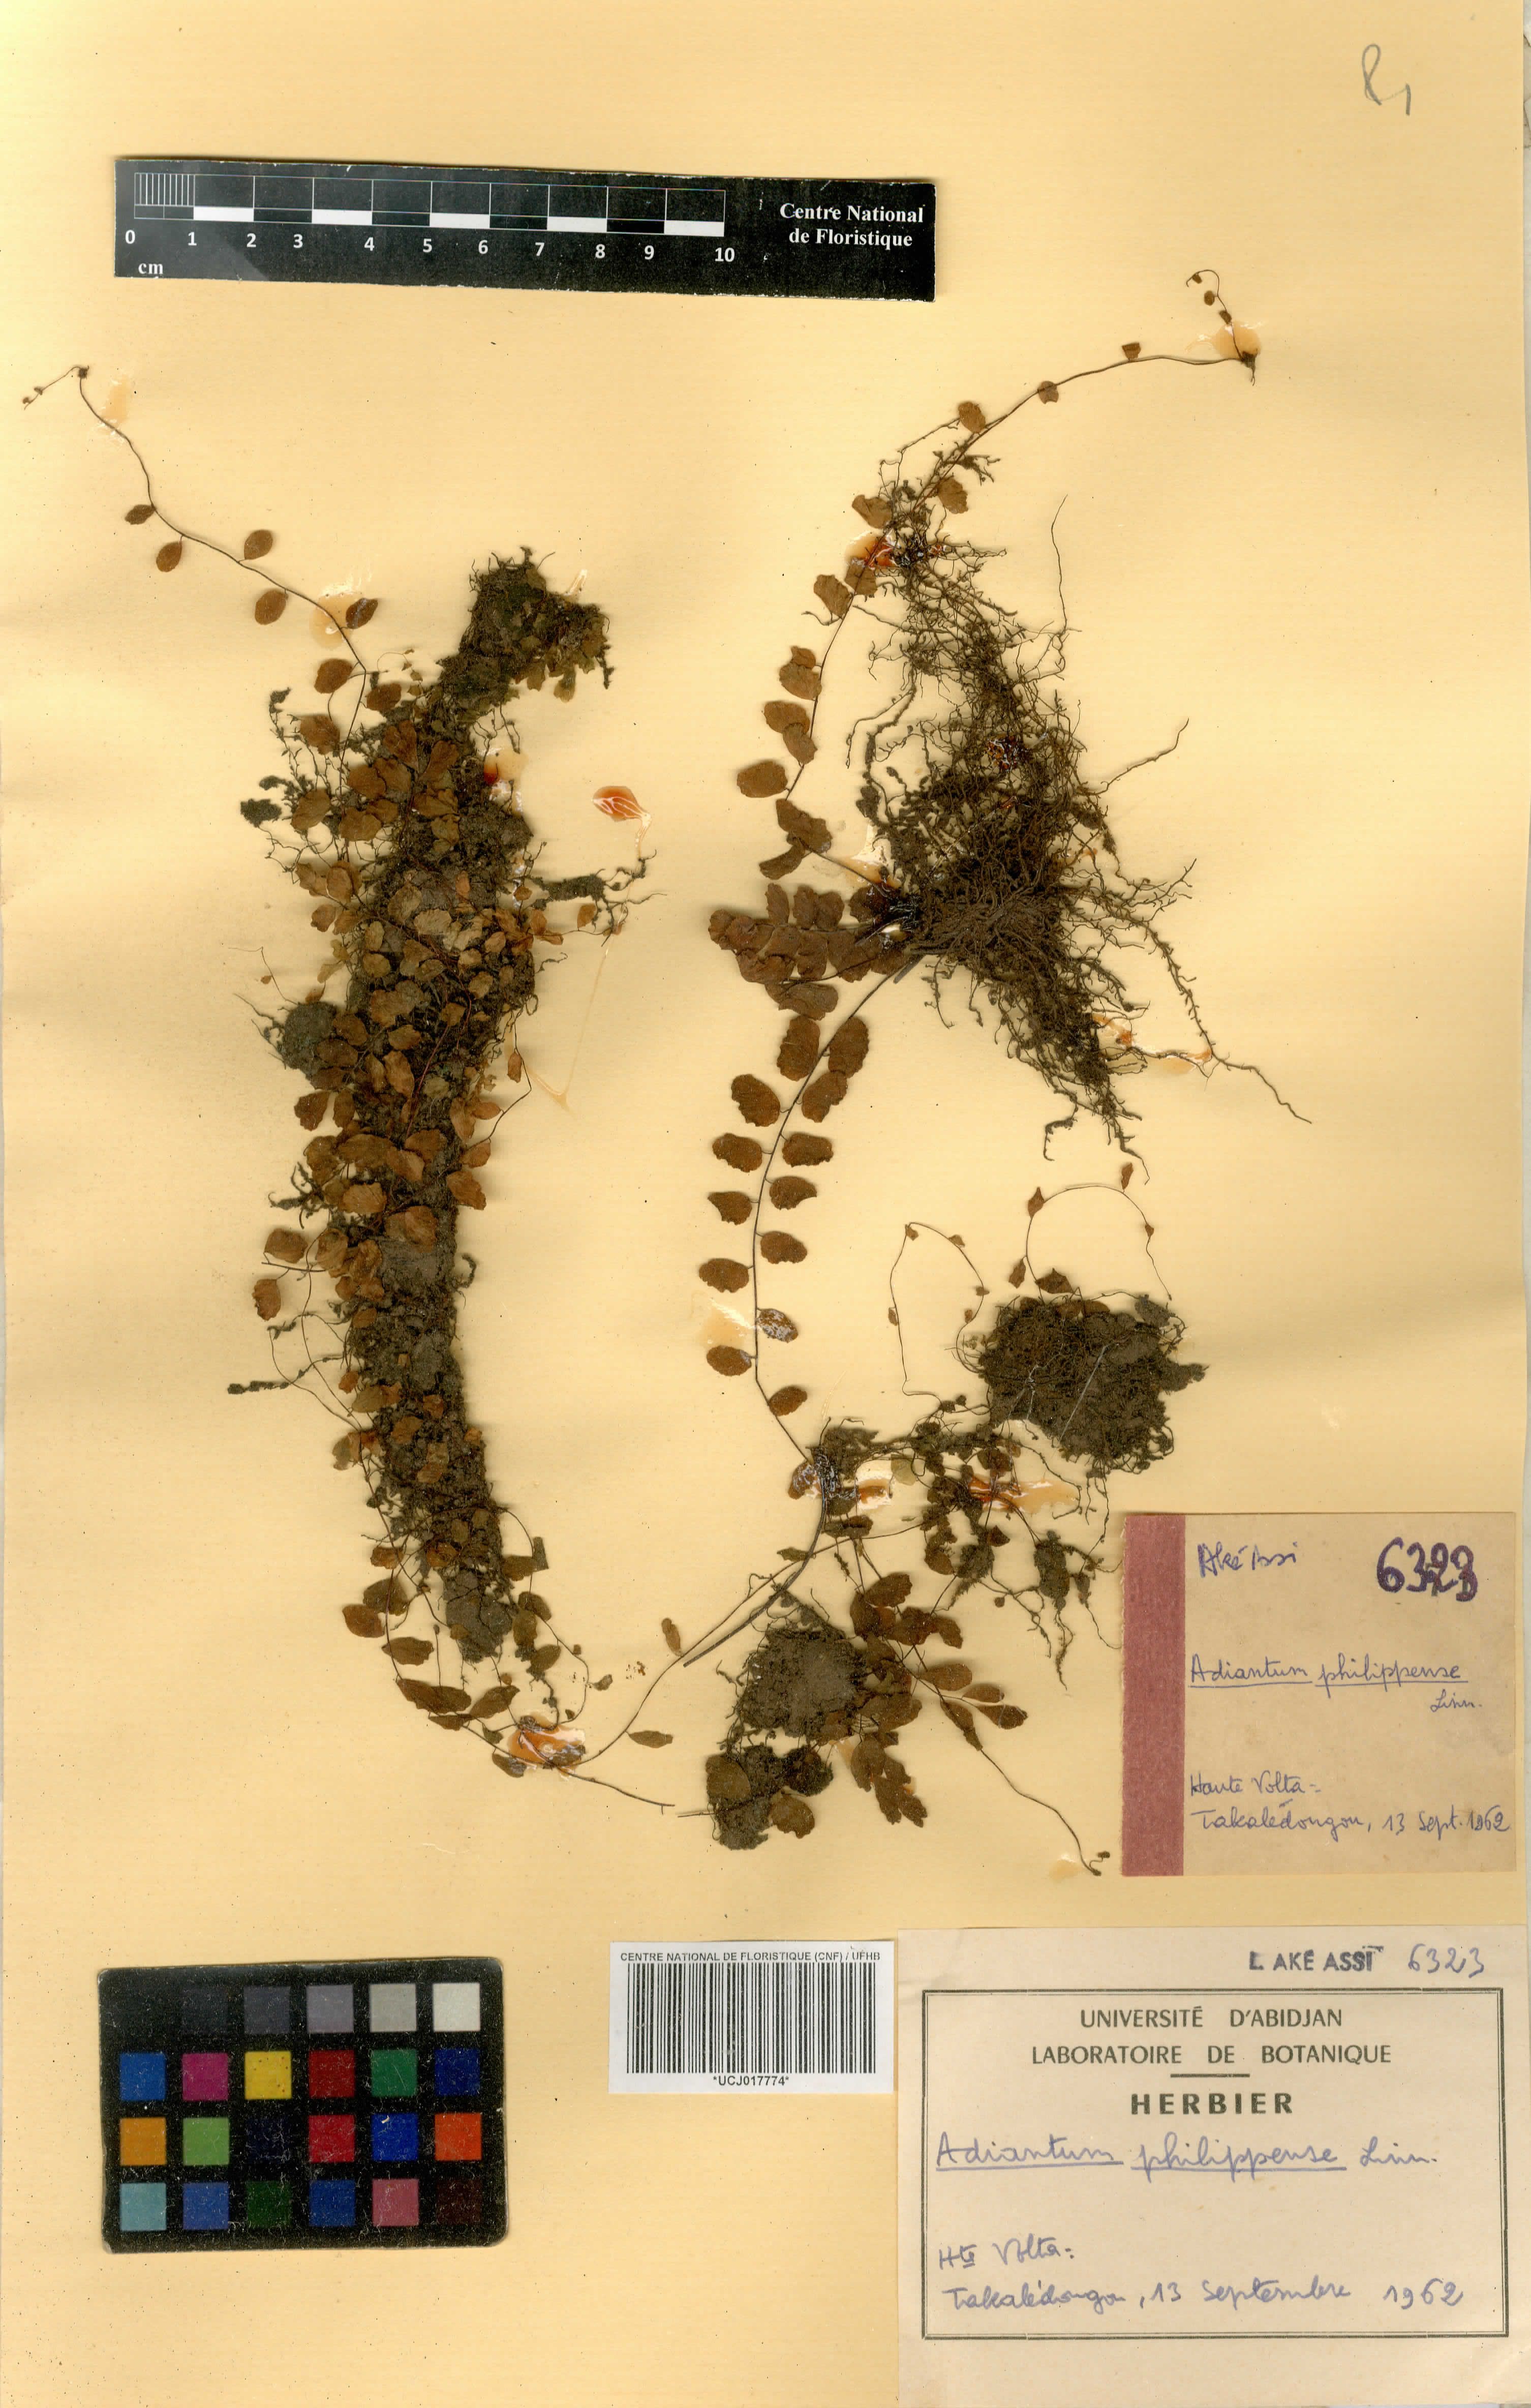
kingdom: Plantae
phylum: Tracheophyta
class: Polypodiopsida
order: Polypodiales
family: Pteridaceae
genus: Adiantum
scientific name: Adiantum philippense
